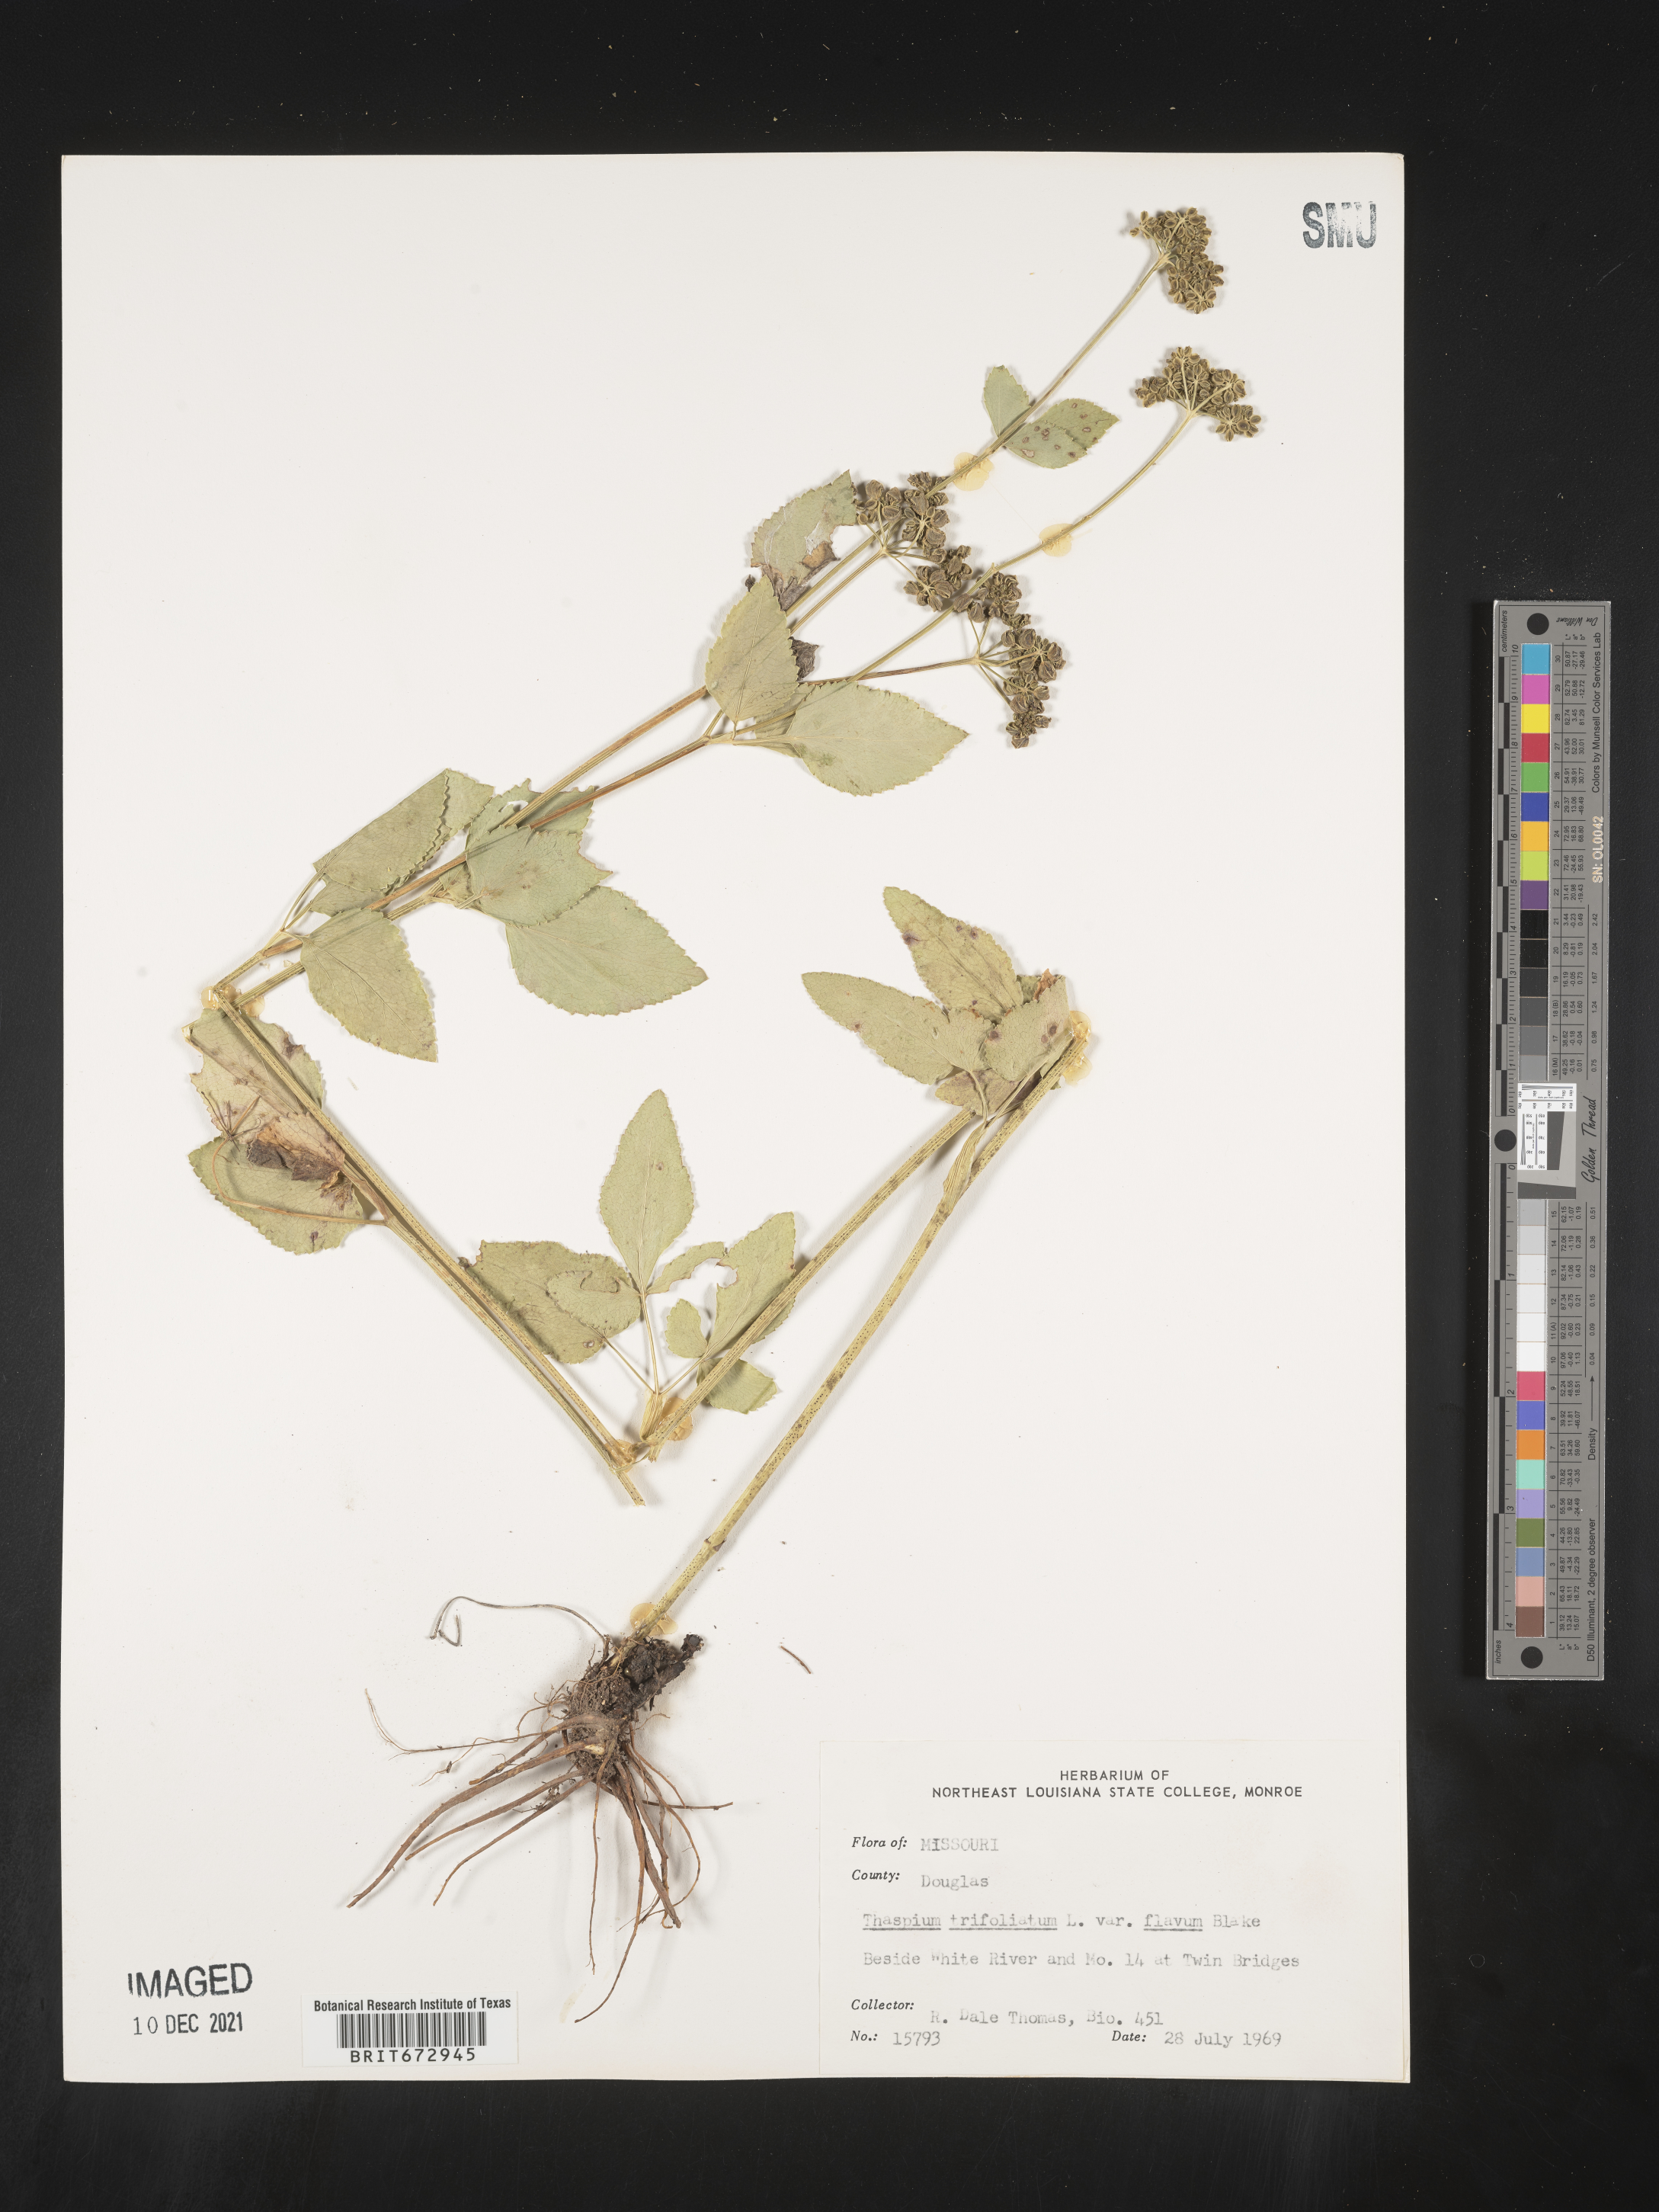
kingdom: Plantae
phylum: Tracheophyta
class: Magnoliopsida
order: Apiales
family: Apiaceae
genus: Thaspium
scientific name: Thaspium
